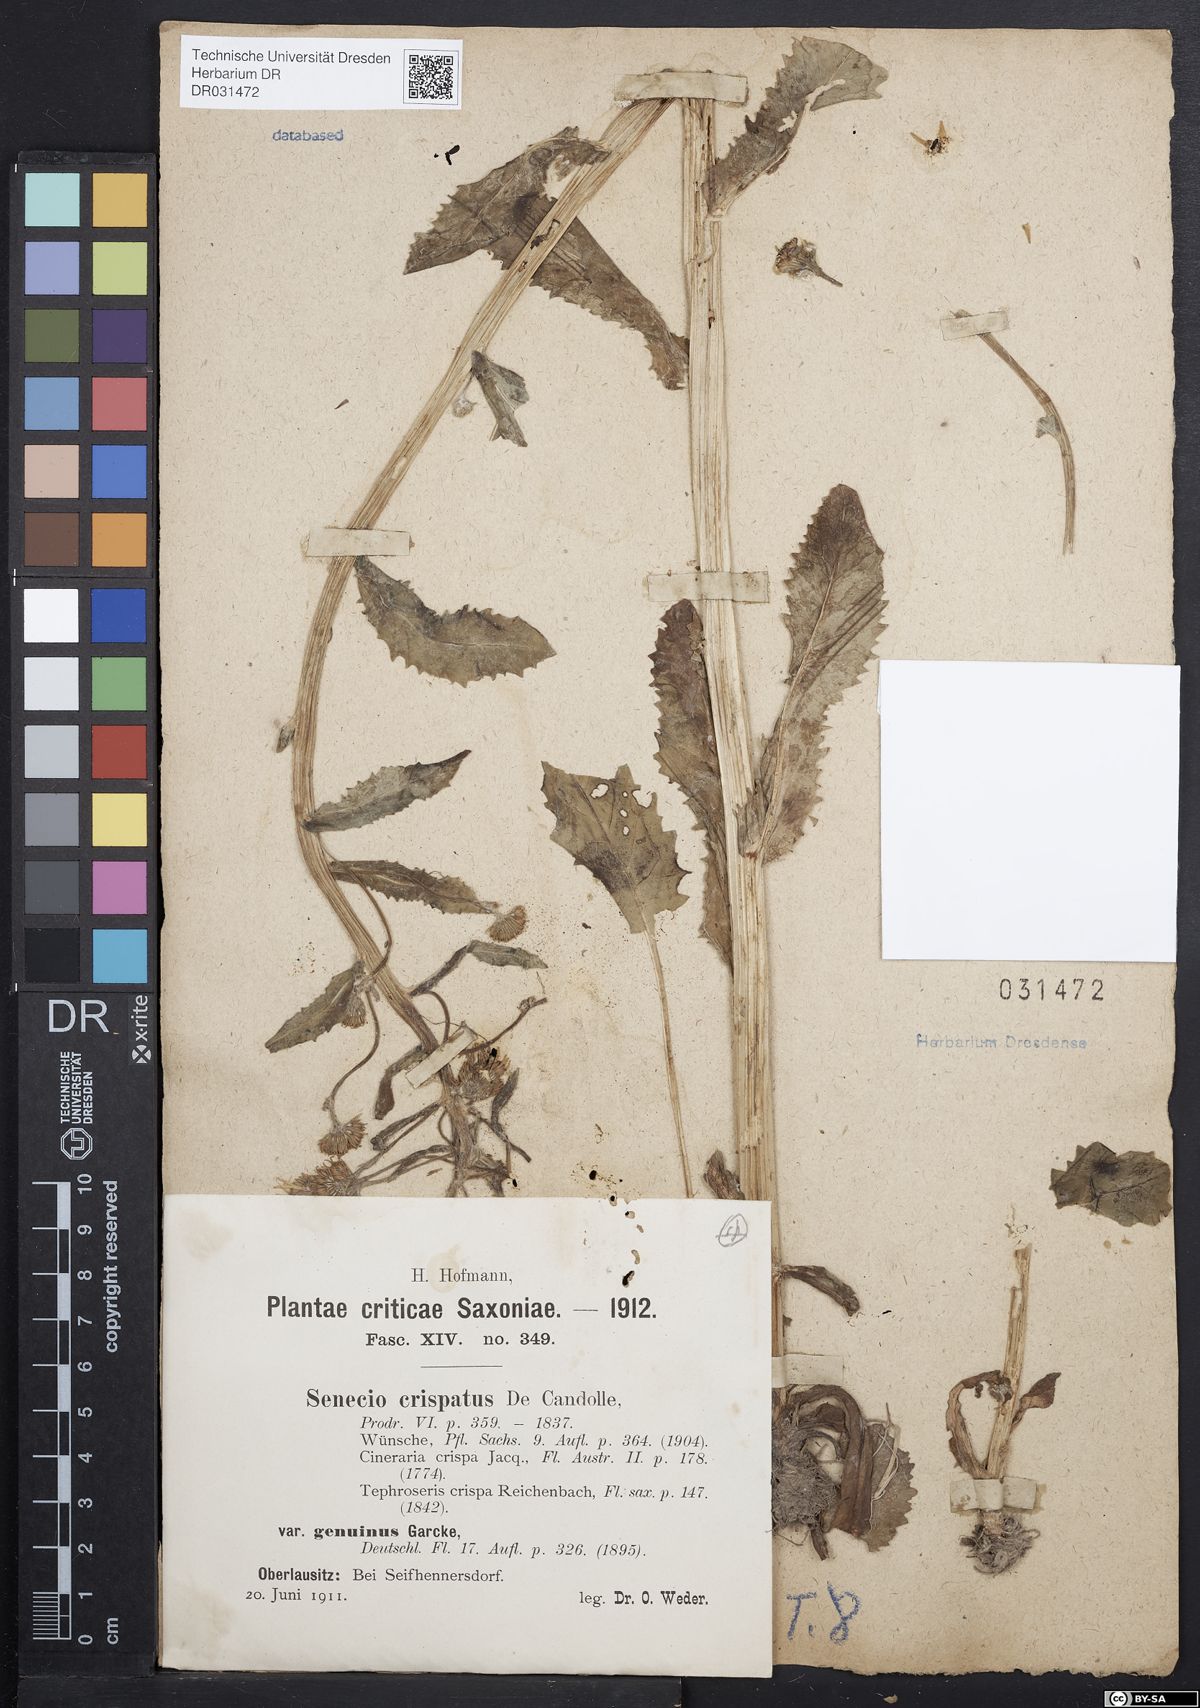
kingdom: Plantae
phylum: Tracheophyta
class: Magnoliopsida
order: Asterales
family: Asteraceae
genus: Tephroseris
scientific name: Tephroseris crispa
